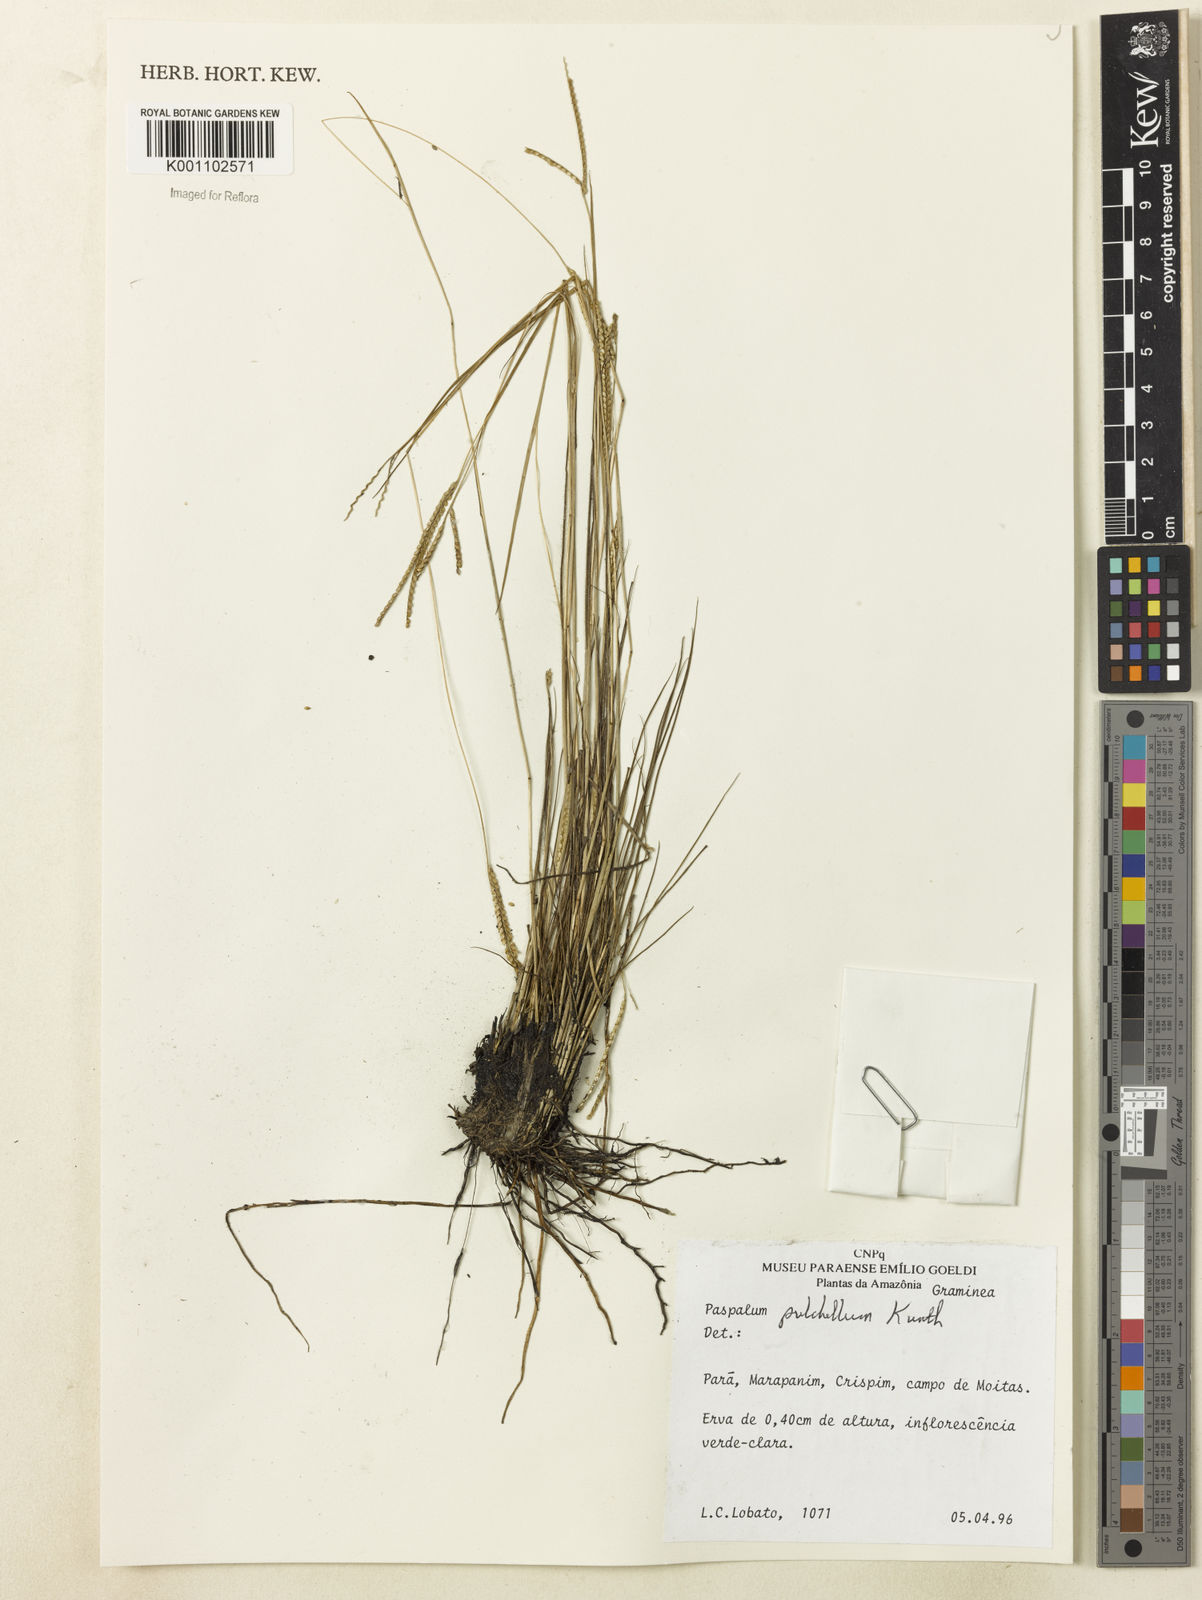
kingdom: Plantae
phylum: Tracheophyta
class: Liliopsida
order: Poales
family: Poaceae
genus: Paspalum
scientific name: Paspalum pulchellum
